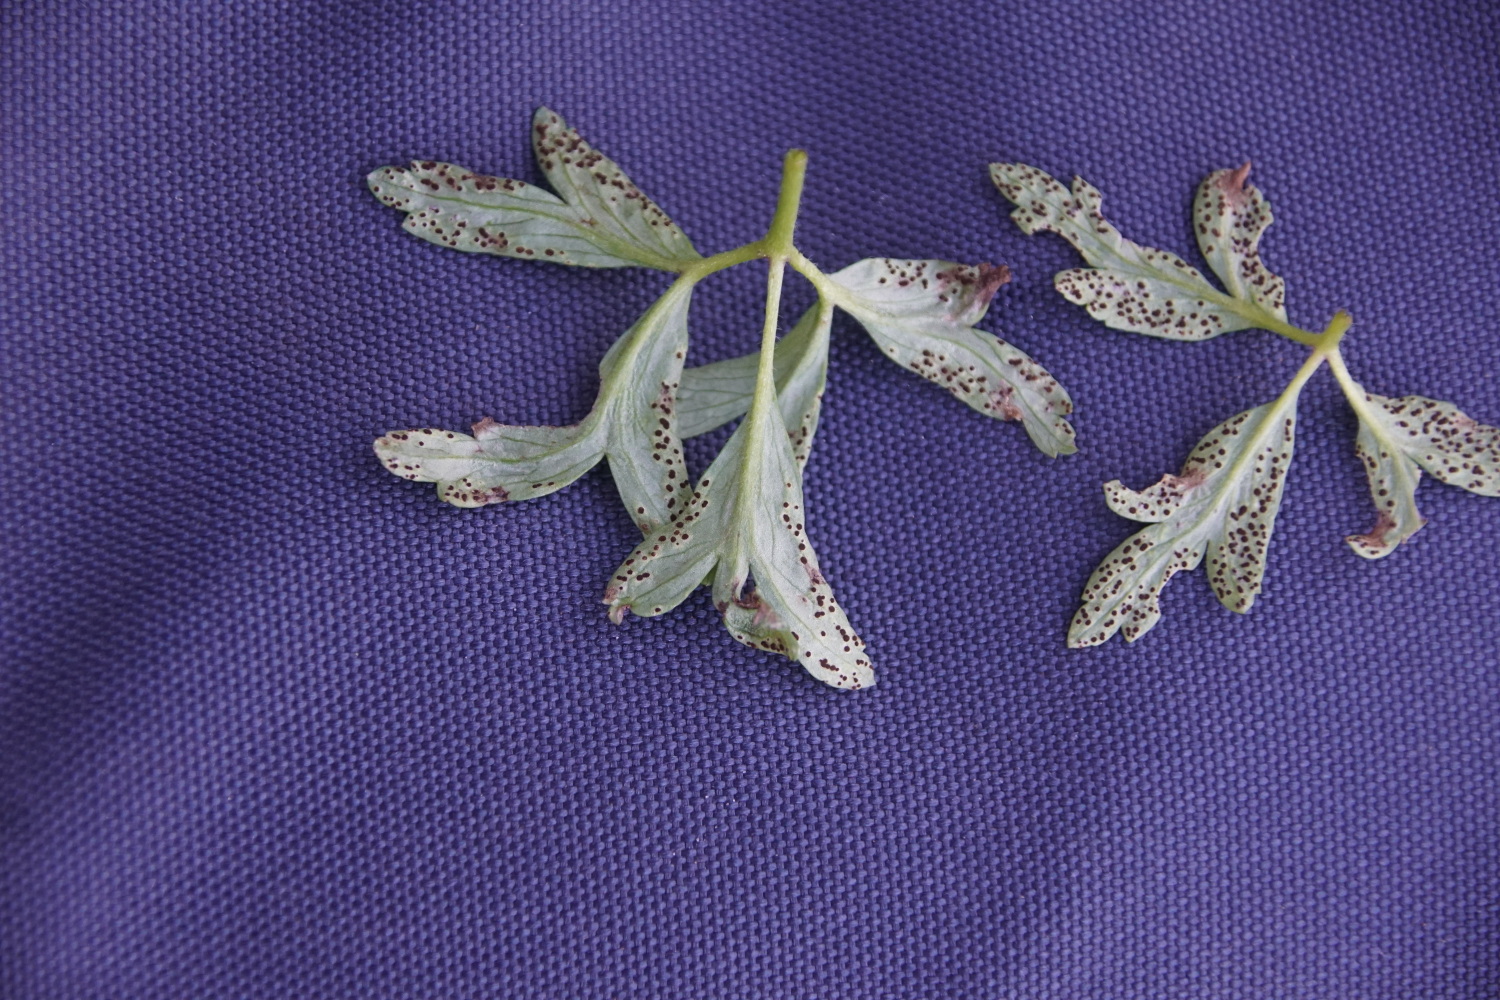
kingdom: Fungi
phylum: Basidiomycota
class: Pucciniomycetes
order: Pucciniales
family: Tranzscheliaceae
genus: Tranzschelia
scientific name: Tranzschelia anemones
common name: anemone-knæksporerust
